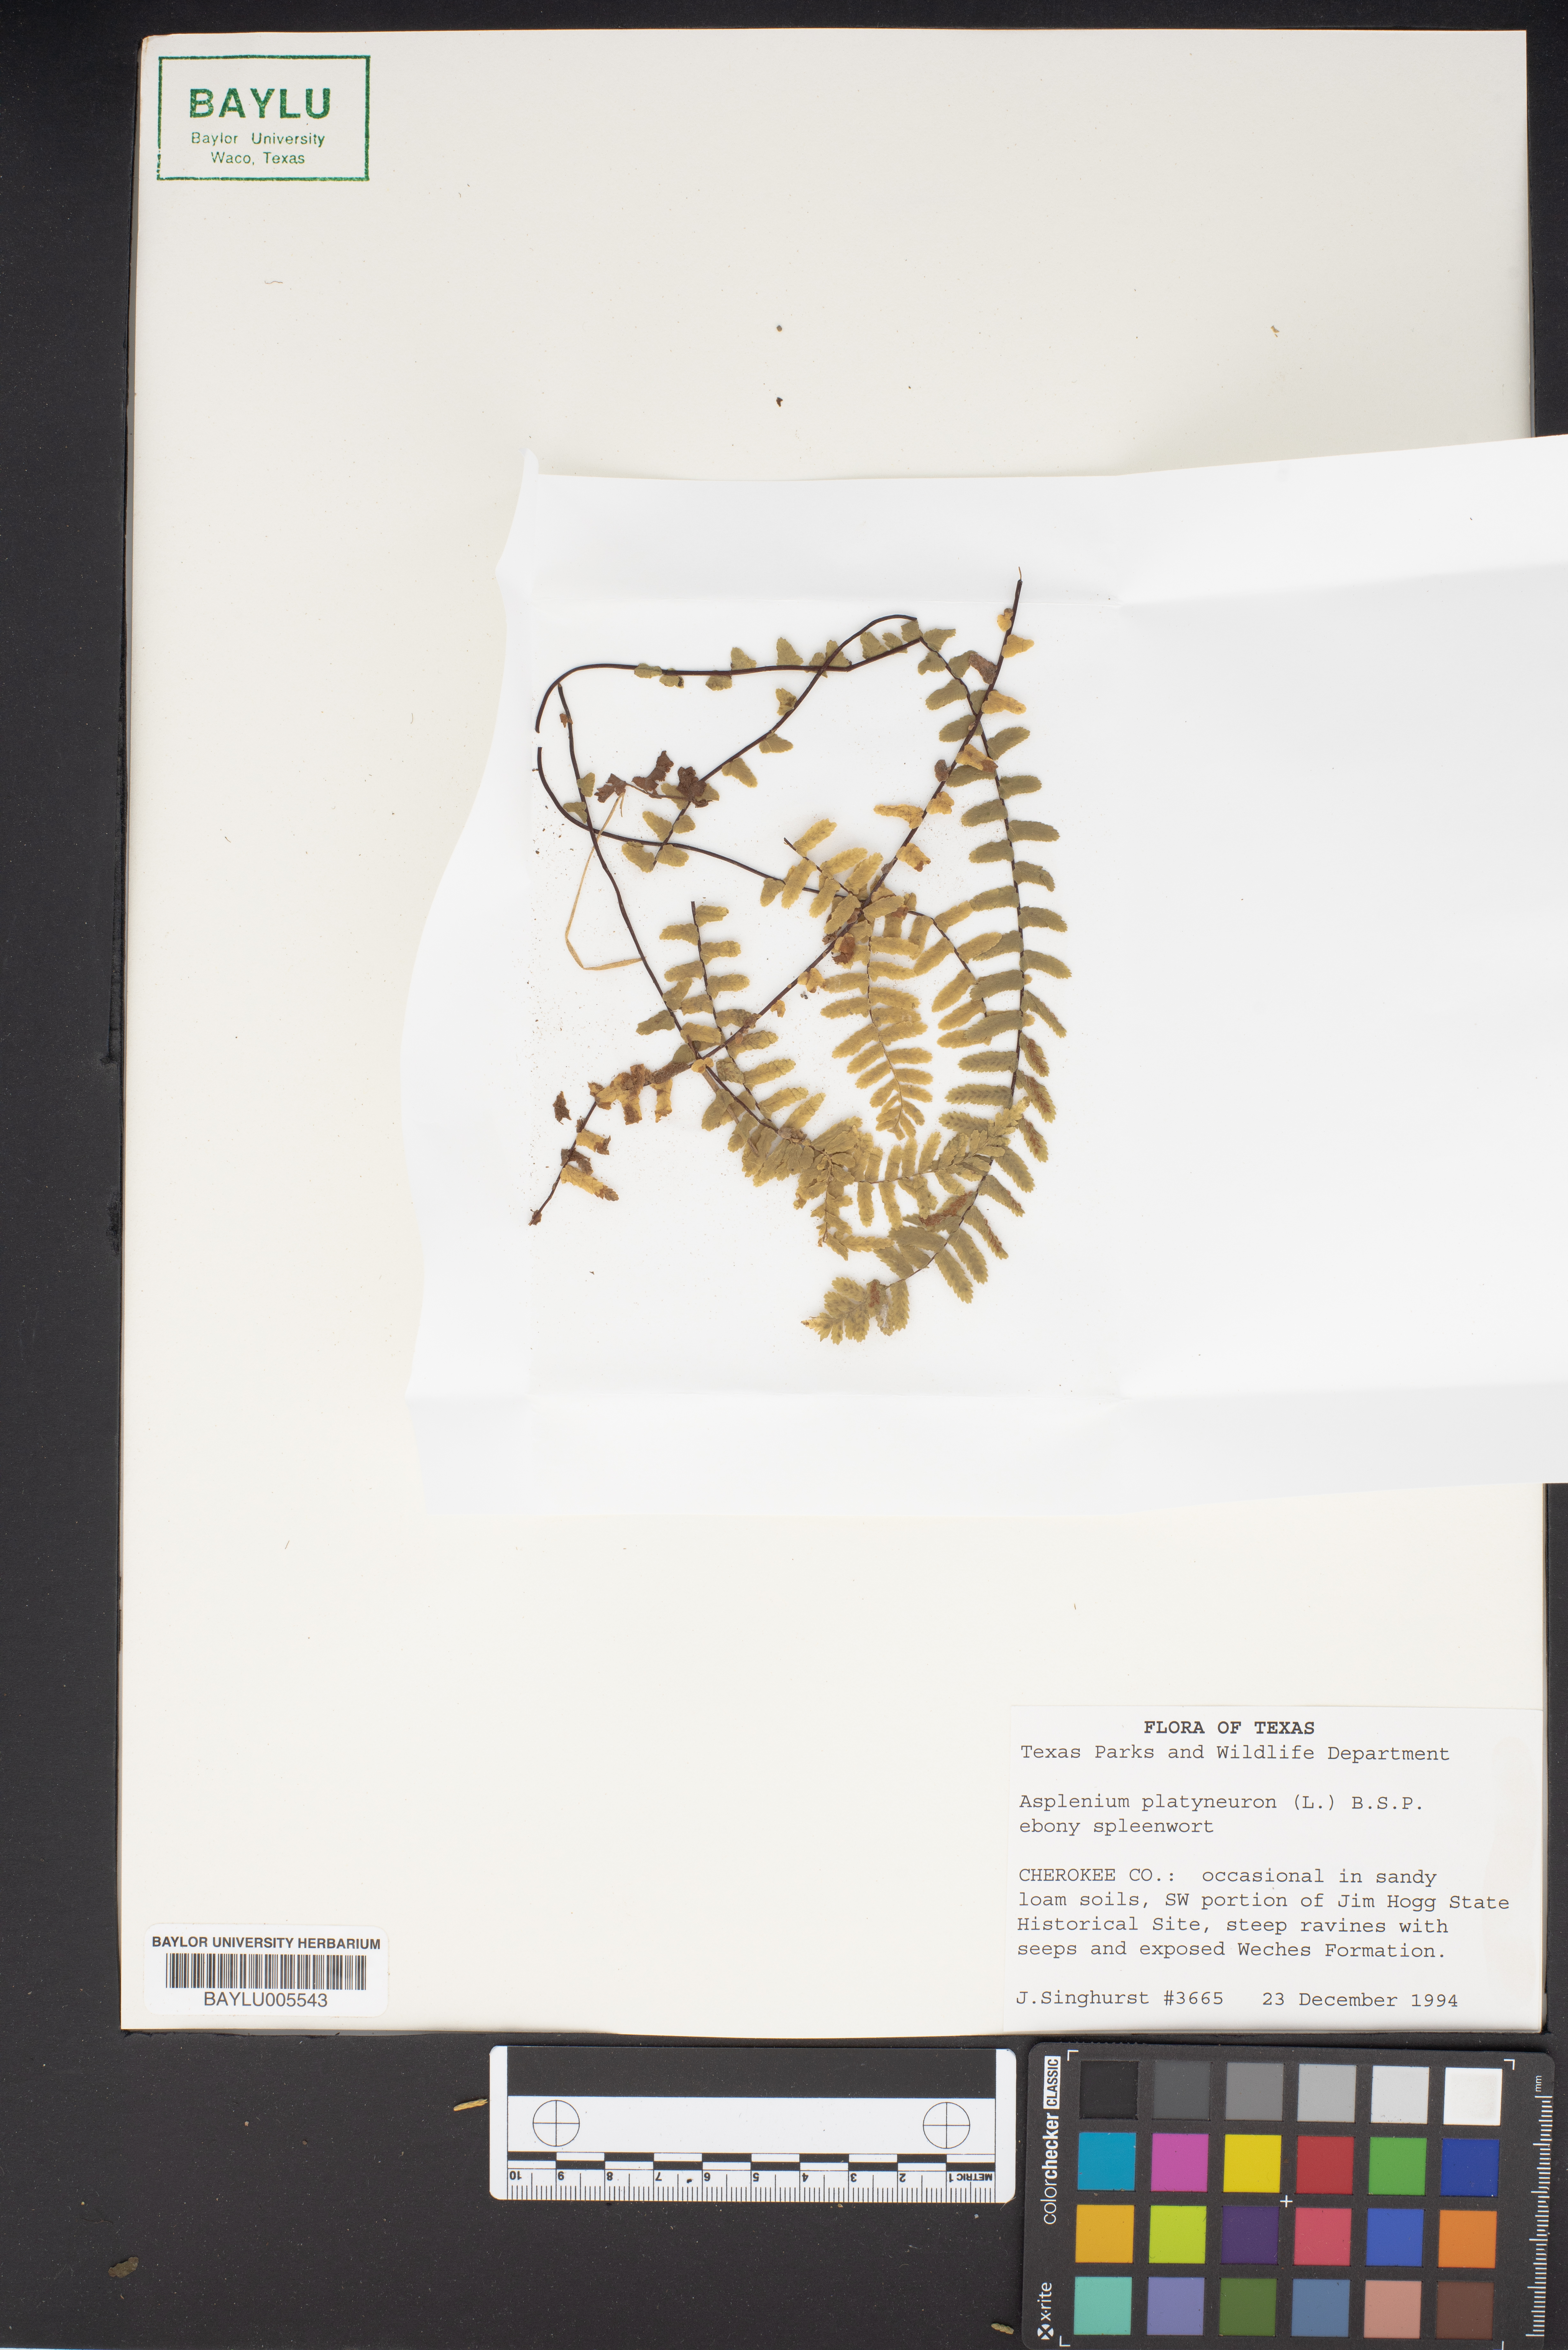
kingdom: Plantae
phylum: Tracheophyta
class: Polypodiopsida
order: Polypodiales
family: Aspleniaceae
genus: Asplenium
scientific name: Asplenium platyneuron
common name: Ebony spleenwort
